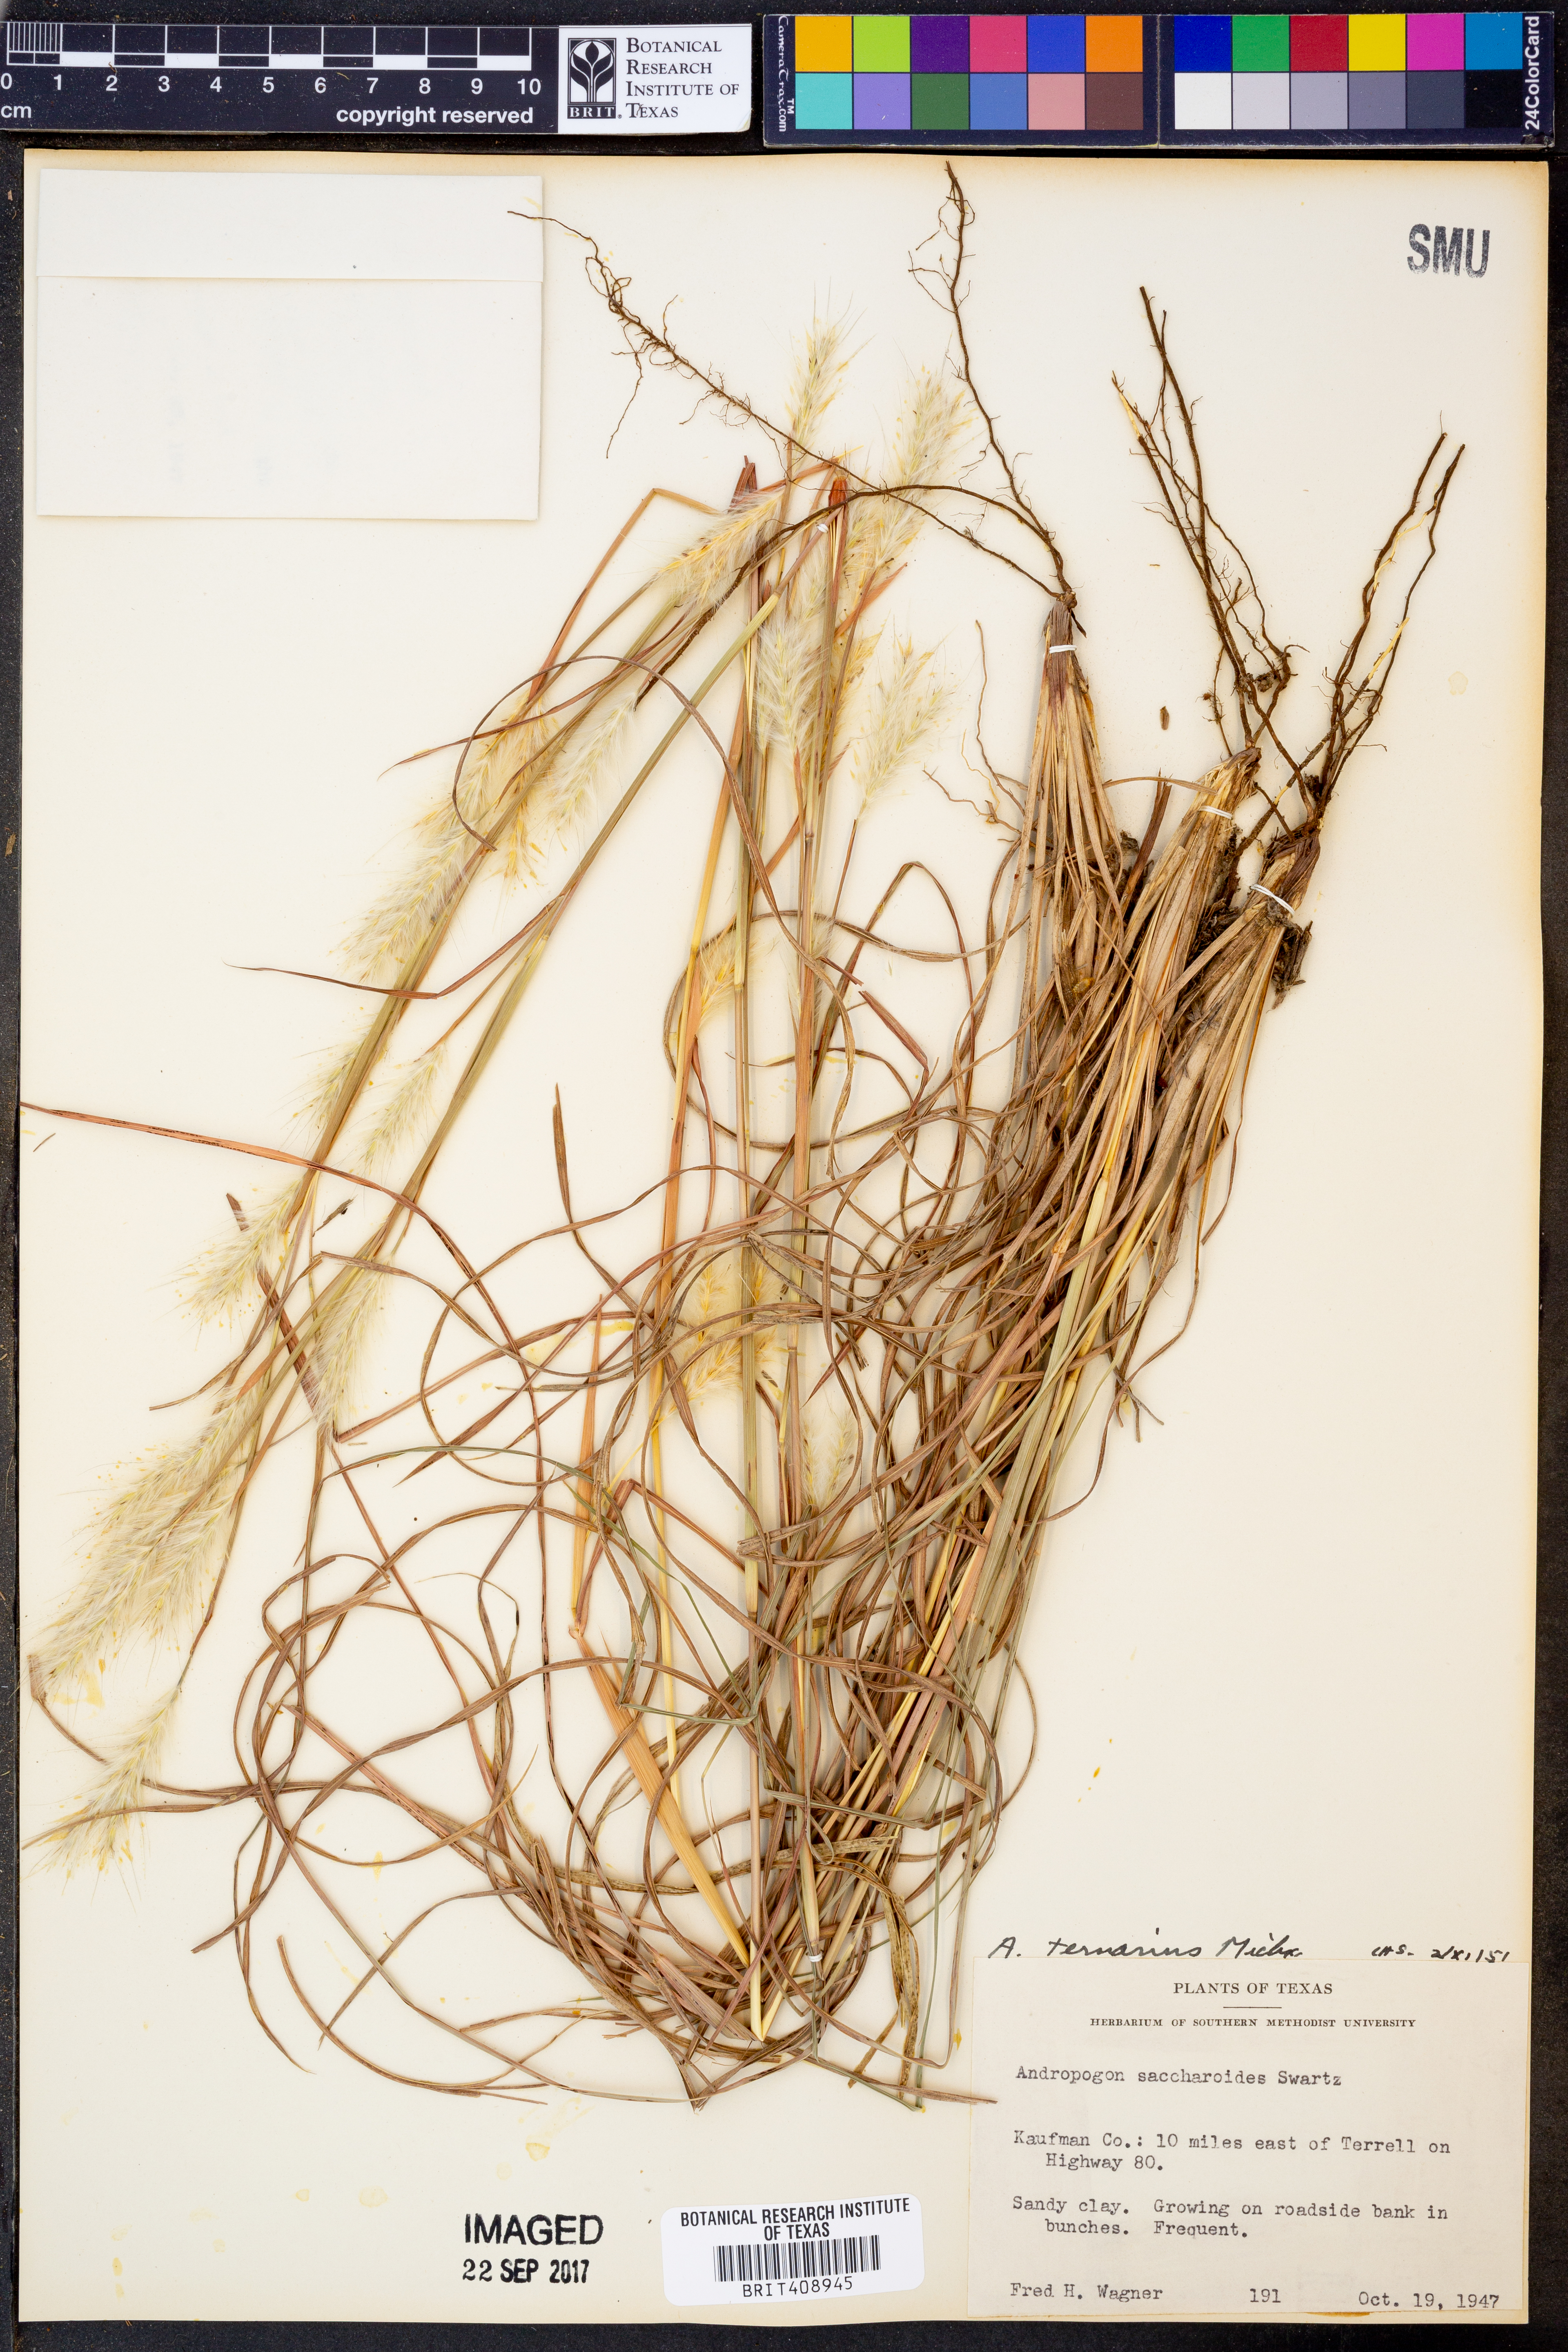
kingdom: Plantae
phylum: Tracheophyta
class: Liliopsida
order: Poales
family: Poaceae
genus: Andropogon
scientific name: Andropogon ternarius
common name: Split bluestem
